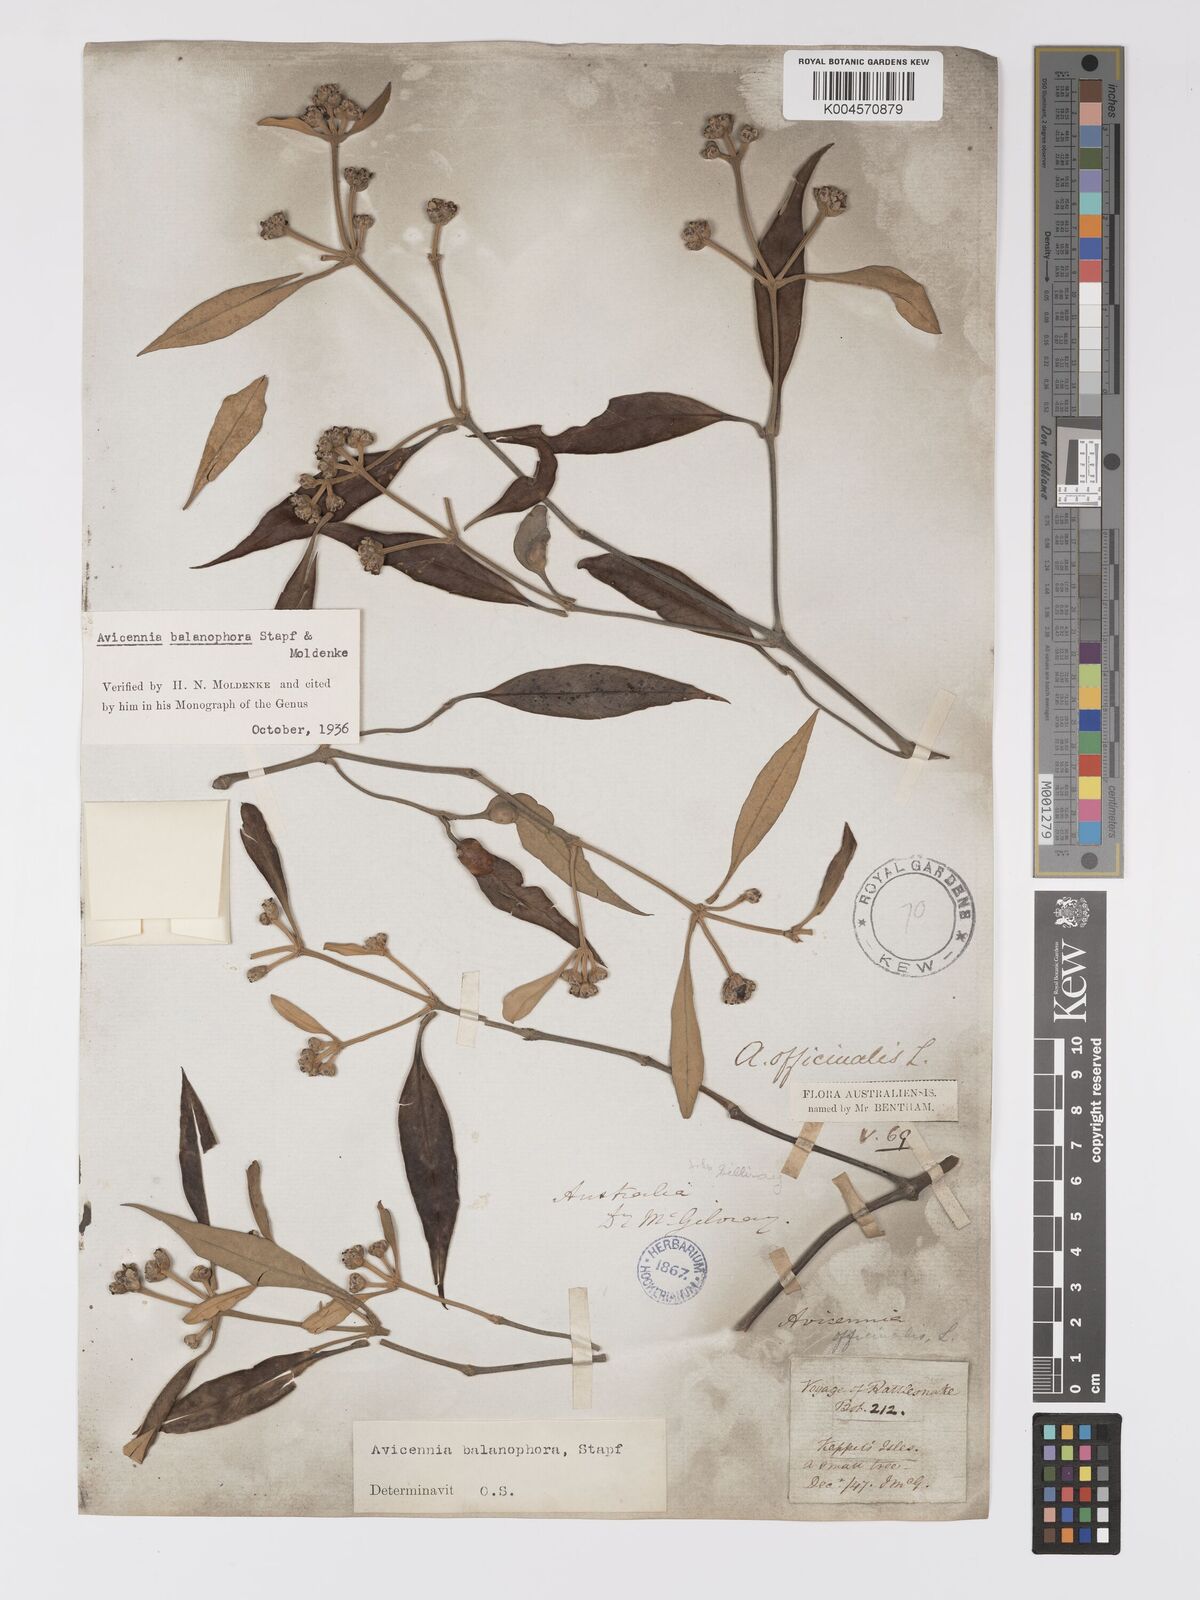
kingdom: Plantae
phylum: Tracheophyta
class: Magnoliopsida
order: Lamiales
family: Acanthaceae
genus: Avicennia
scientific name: Avicennia balanophora
